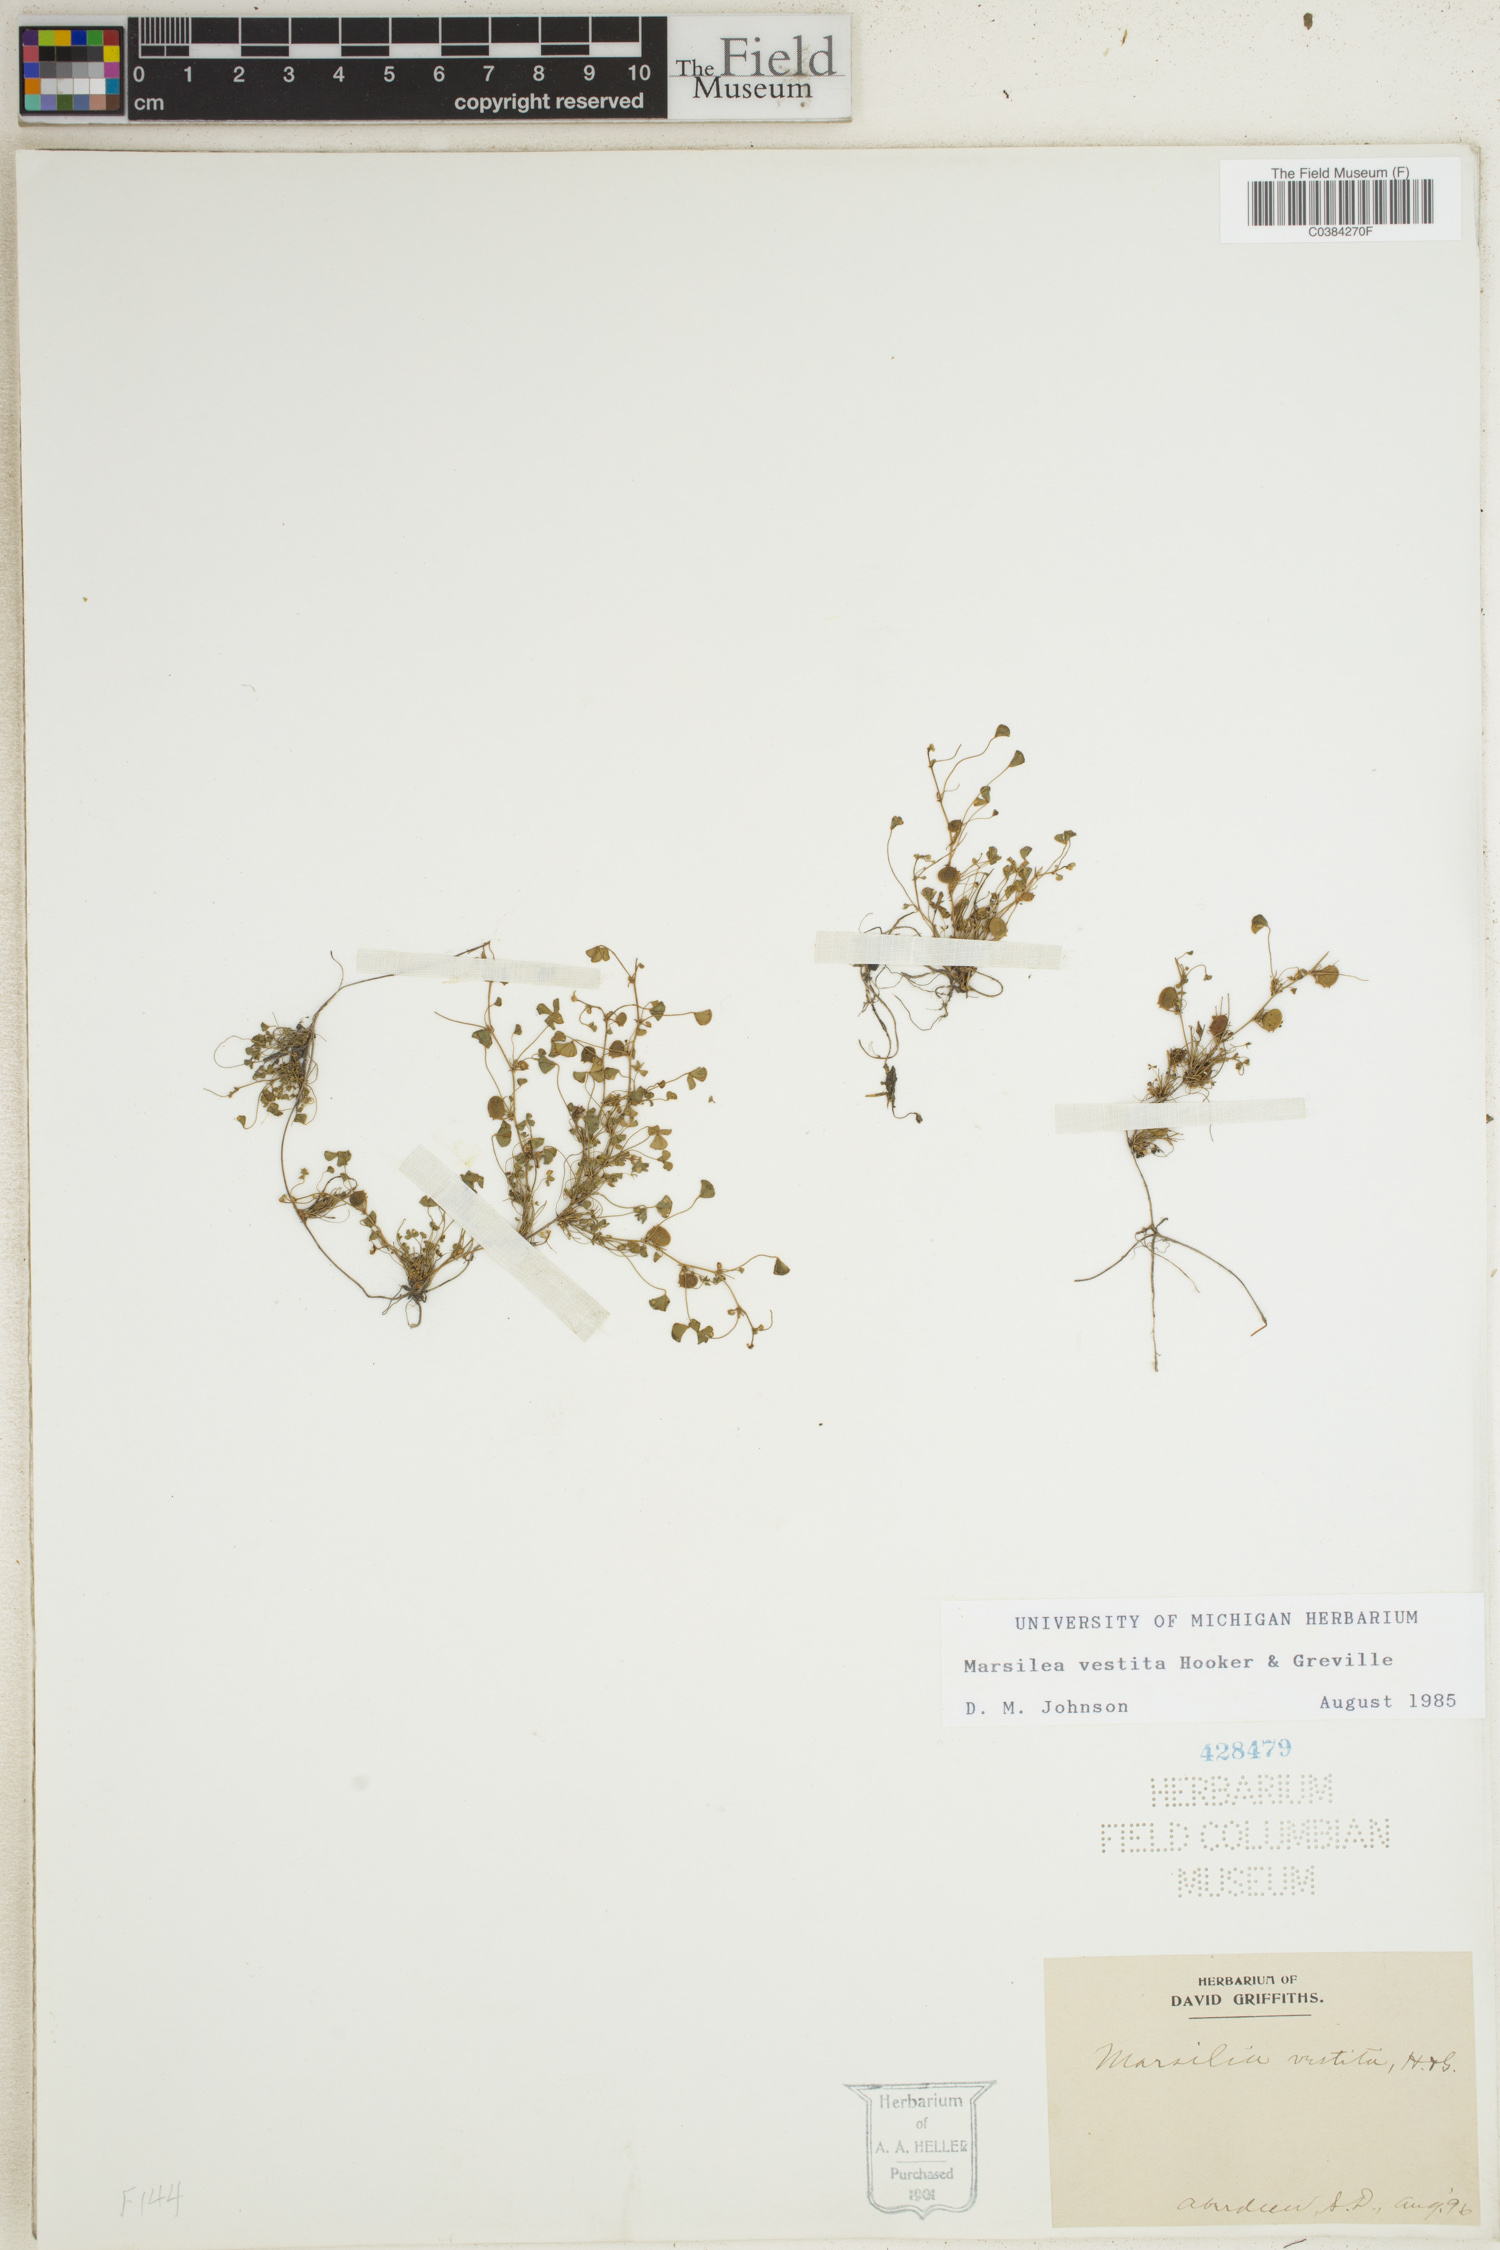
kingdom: Plantae
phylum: Tracheophyta
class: Polypodiopsida
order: Salviniales
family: Marsileaceae
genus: Marsilea
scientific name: Marsilea vestita
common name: Hooked-pepperwort
